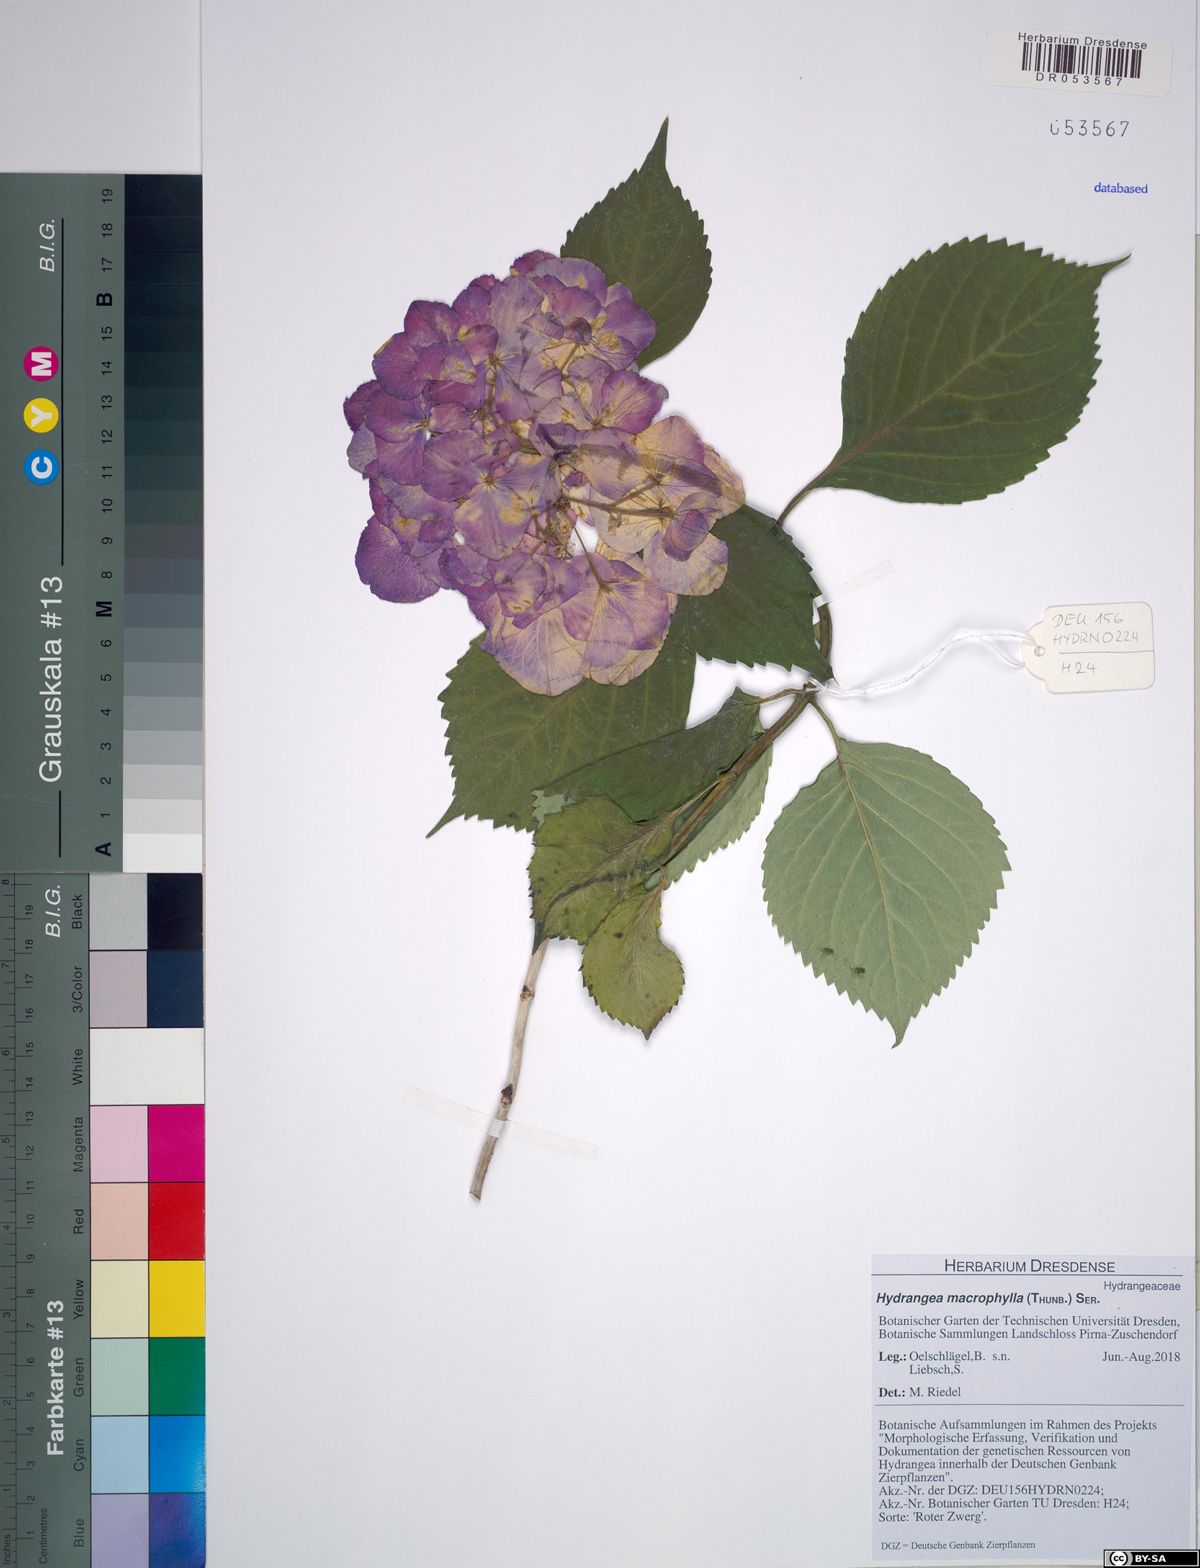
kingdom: Plantae
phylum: Tracheophyta
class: Magnoliopsida
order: Cornales
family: Hydrangeaceae
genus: Hydrangea
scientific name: Hydrangea macrophylla
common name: Hydrangea
